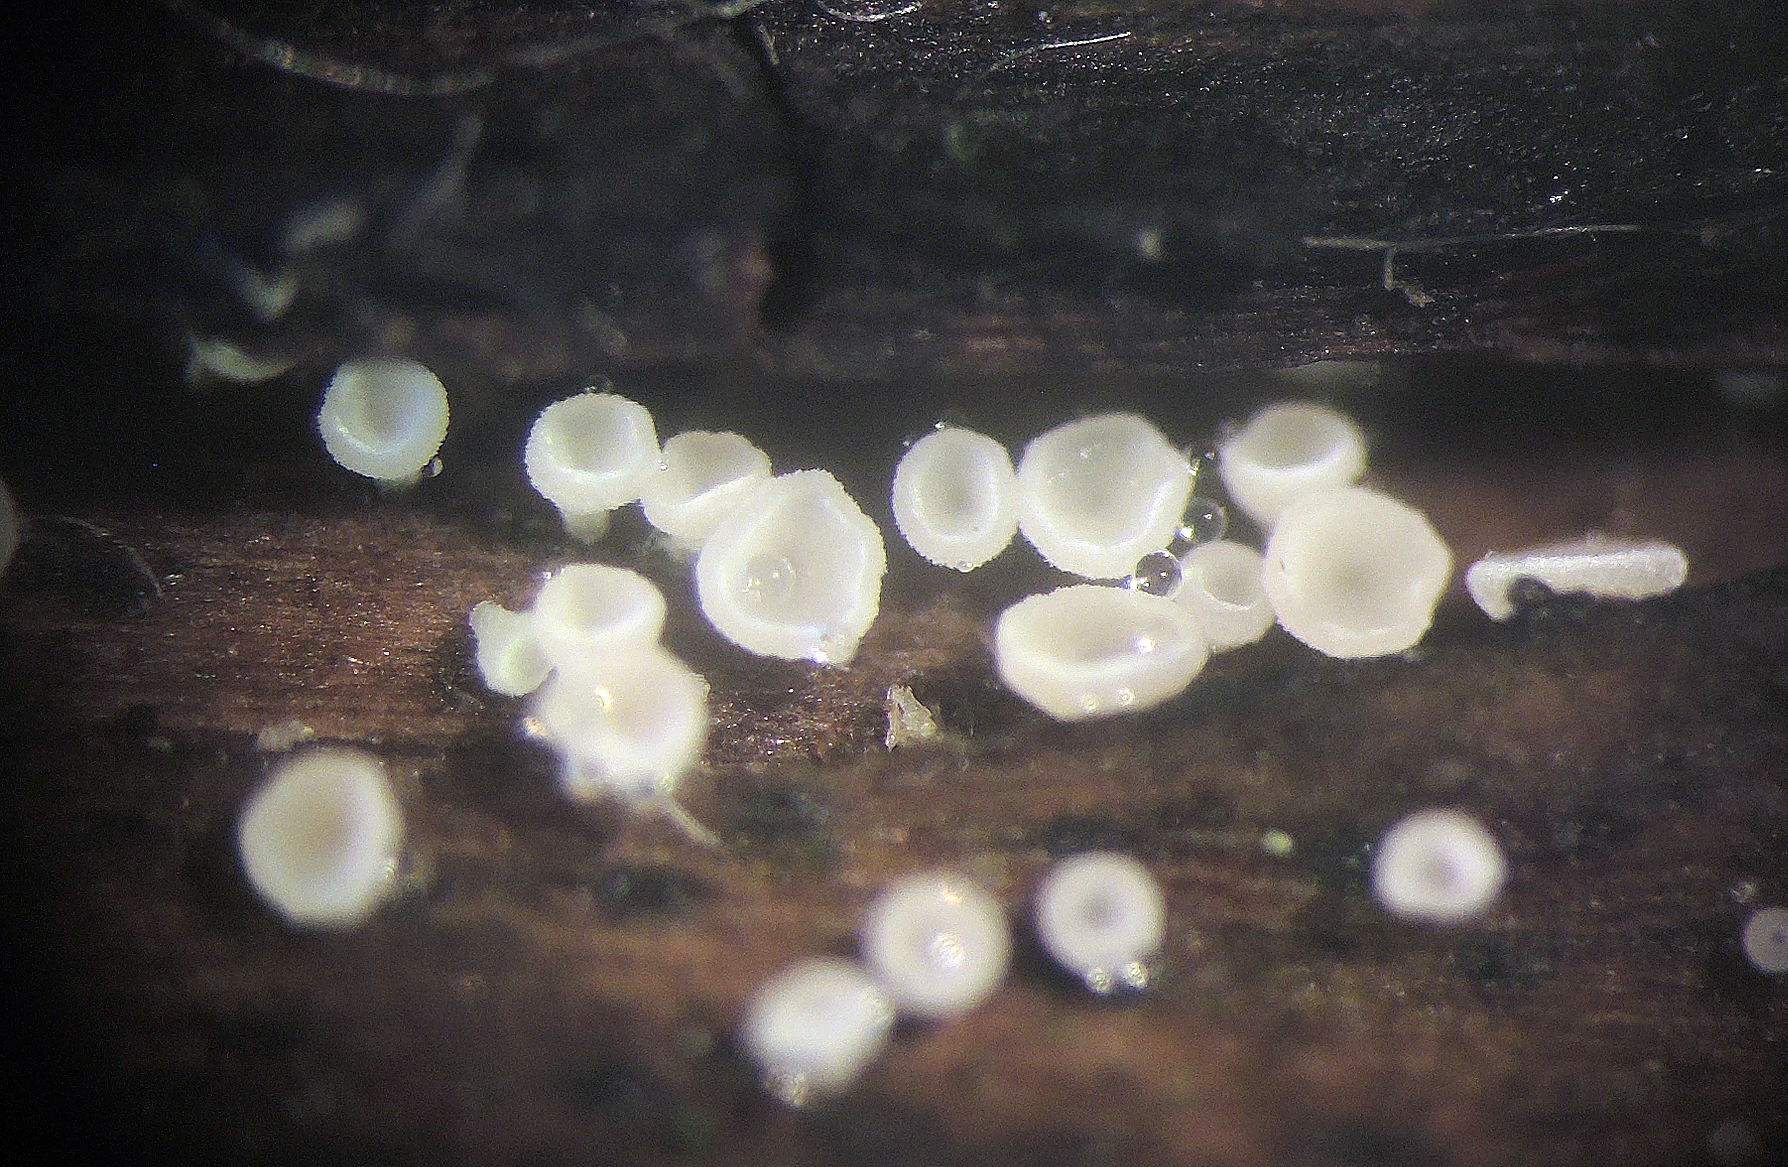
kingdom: Fungi
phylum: Ascomycota
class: Leotiomycetes
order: Helotiales
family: Pezizellaceae
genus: Calycina
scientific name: Calycina vulgaris
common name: pølsesporet gulskive
